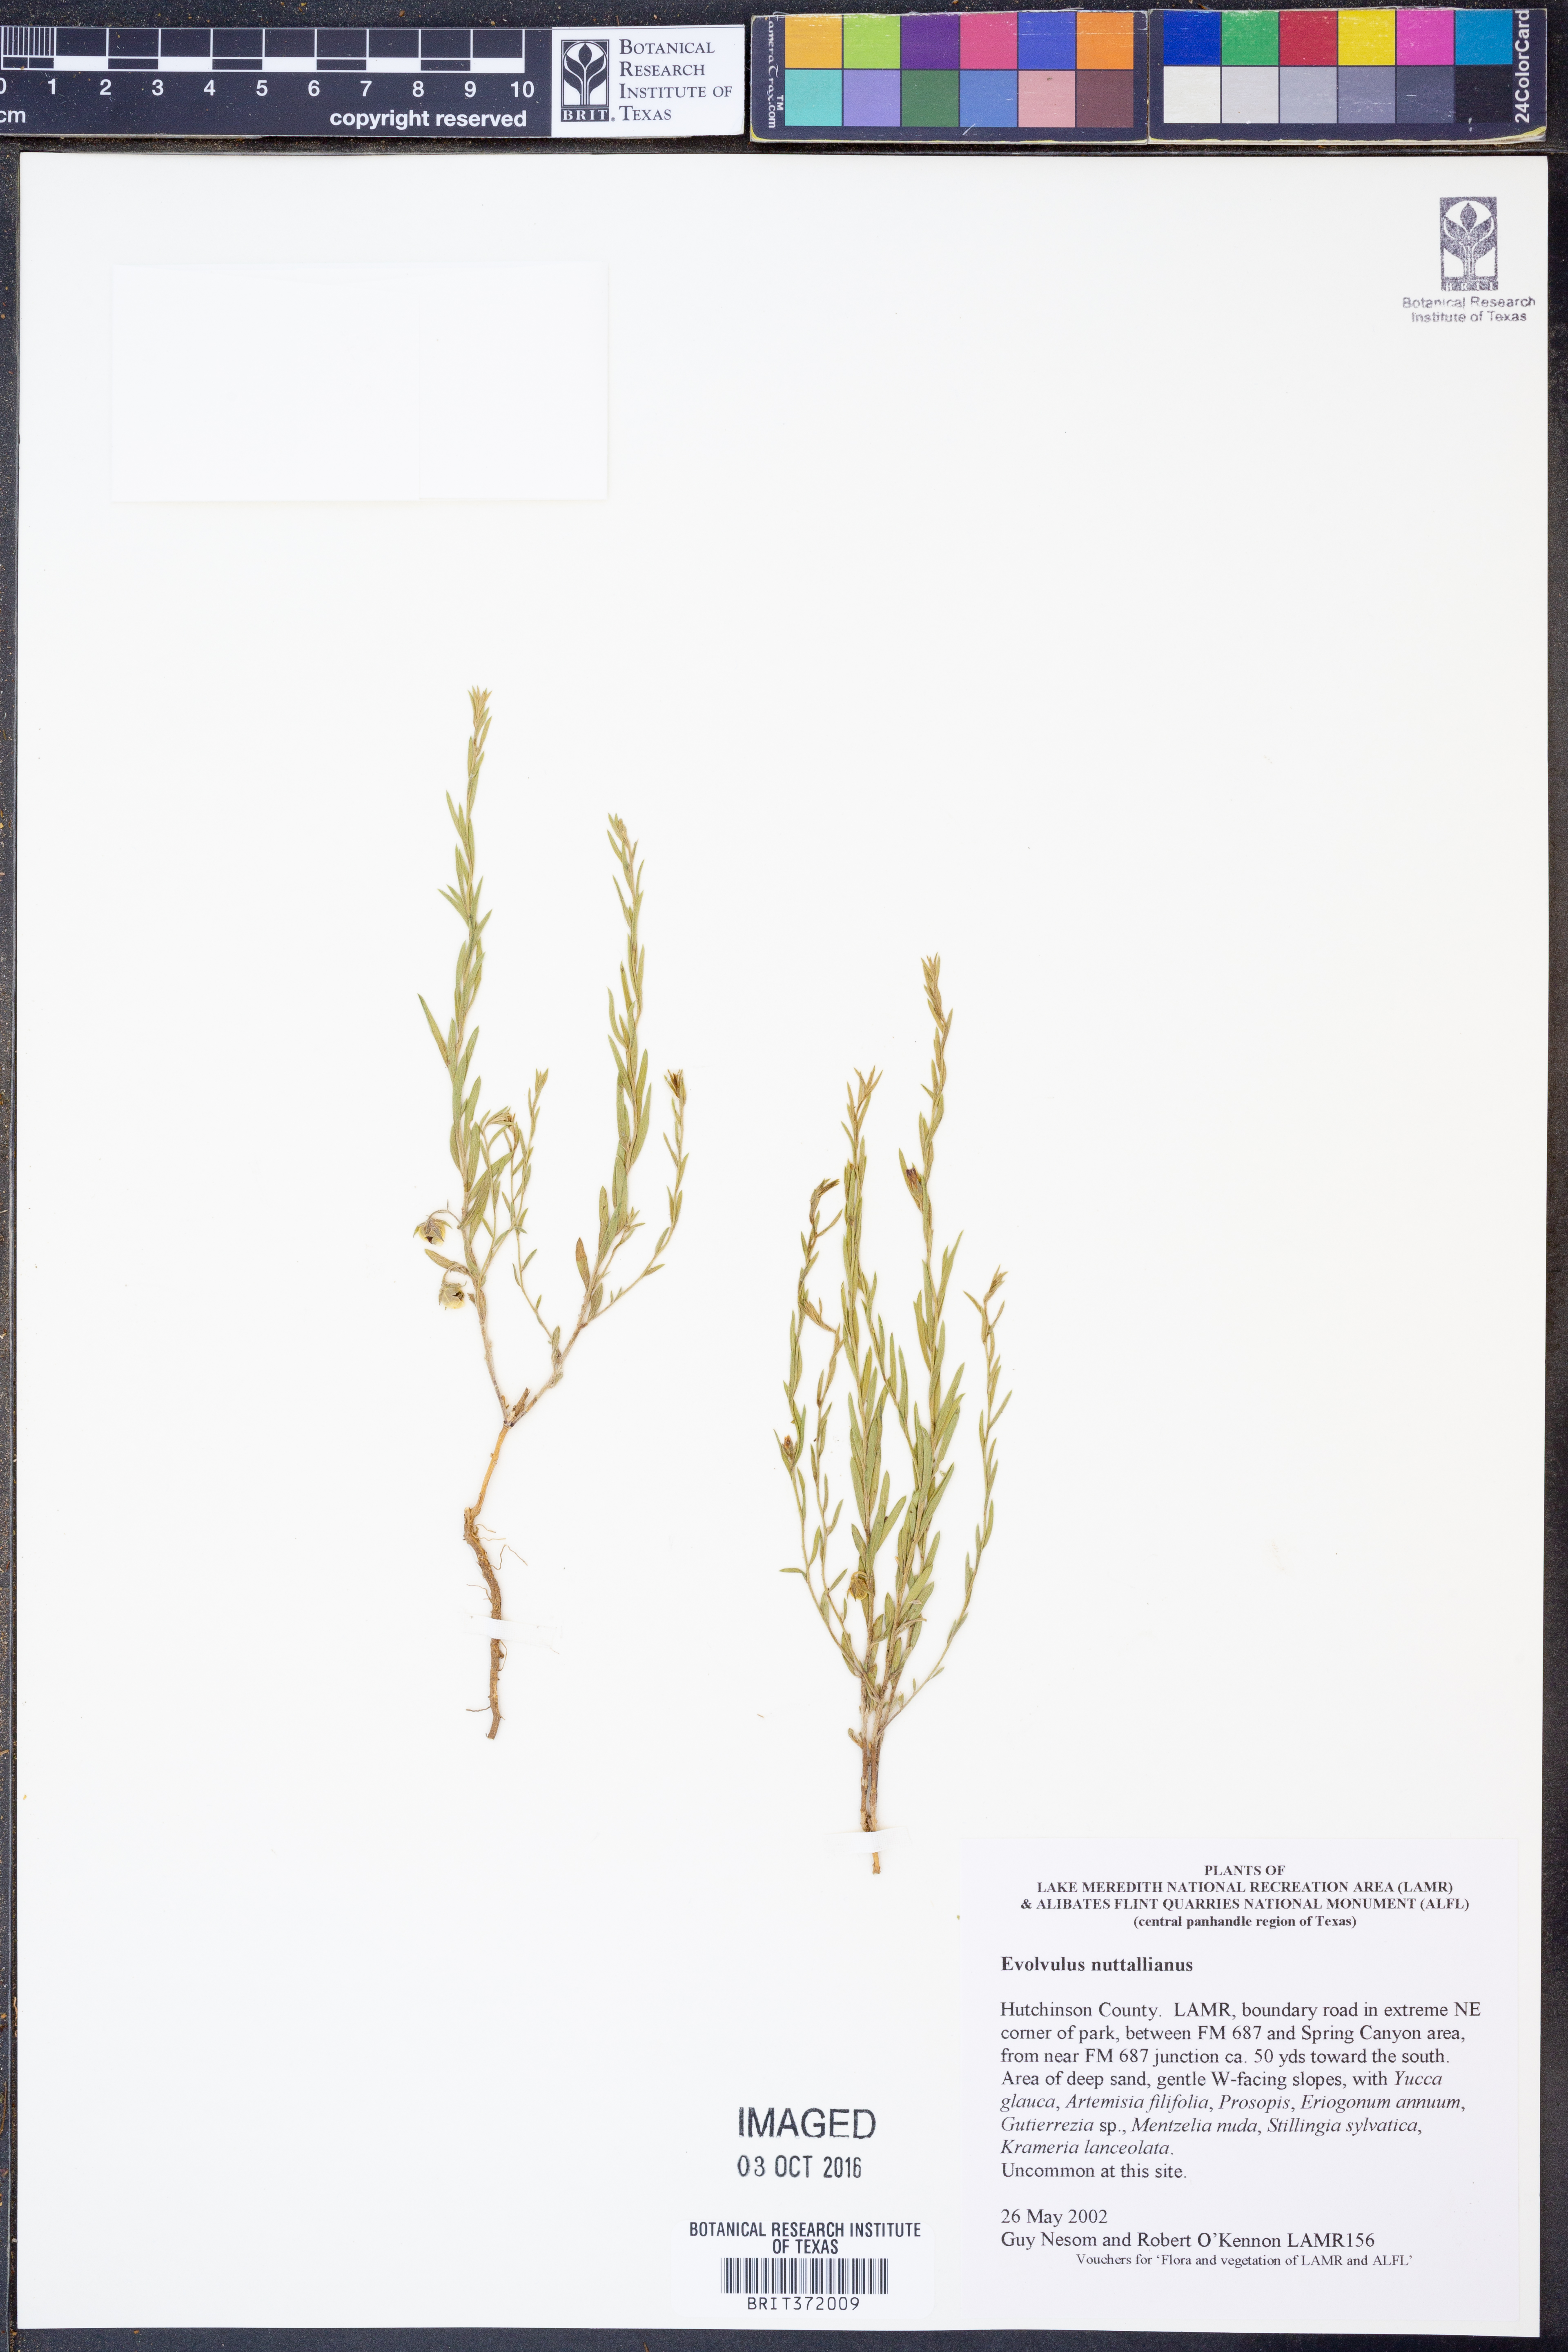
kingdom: Plantae
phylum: Tracheophyta
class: Magnoliopsida
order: Solanales
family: Convolvulaceae
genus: Evolvulus
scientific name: Evolvulus nuttallianus
